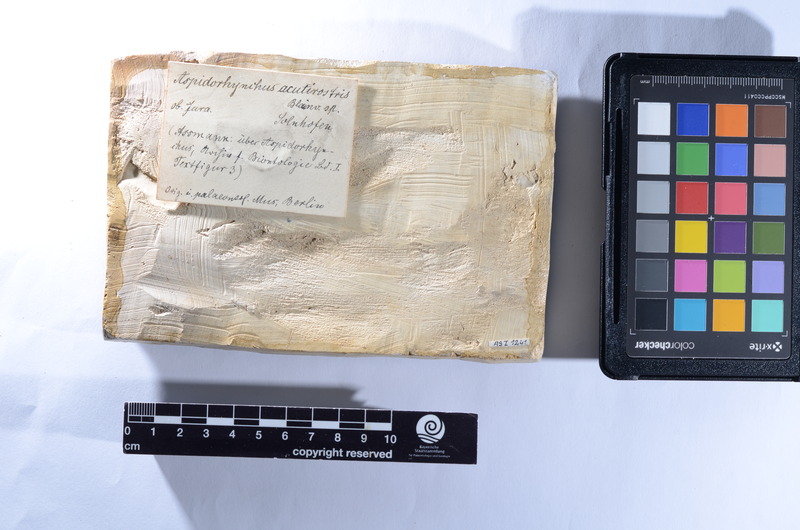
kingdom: Animalia
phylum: Chordata
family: Aspidorhynchidae
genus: Aspidorhynchus
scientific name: Aspidorhynchus acutirostris
